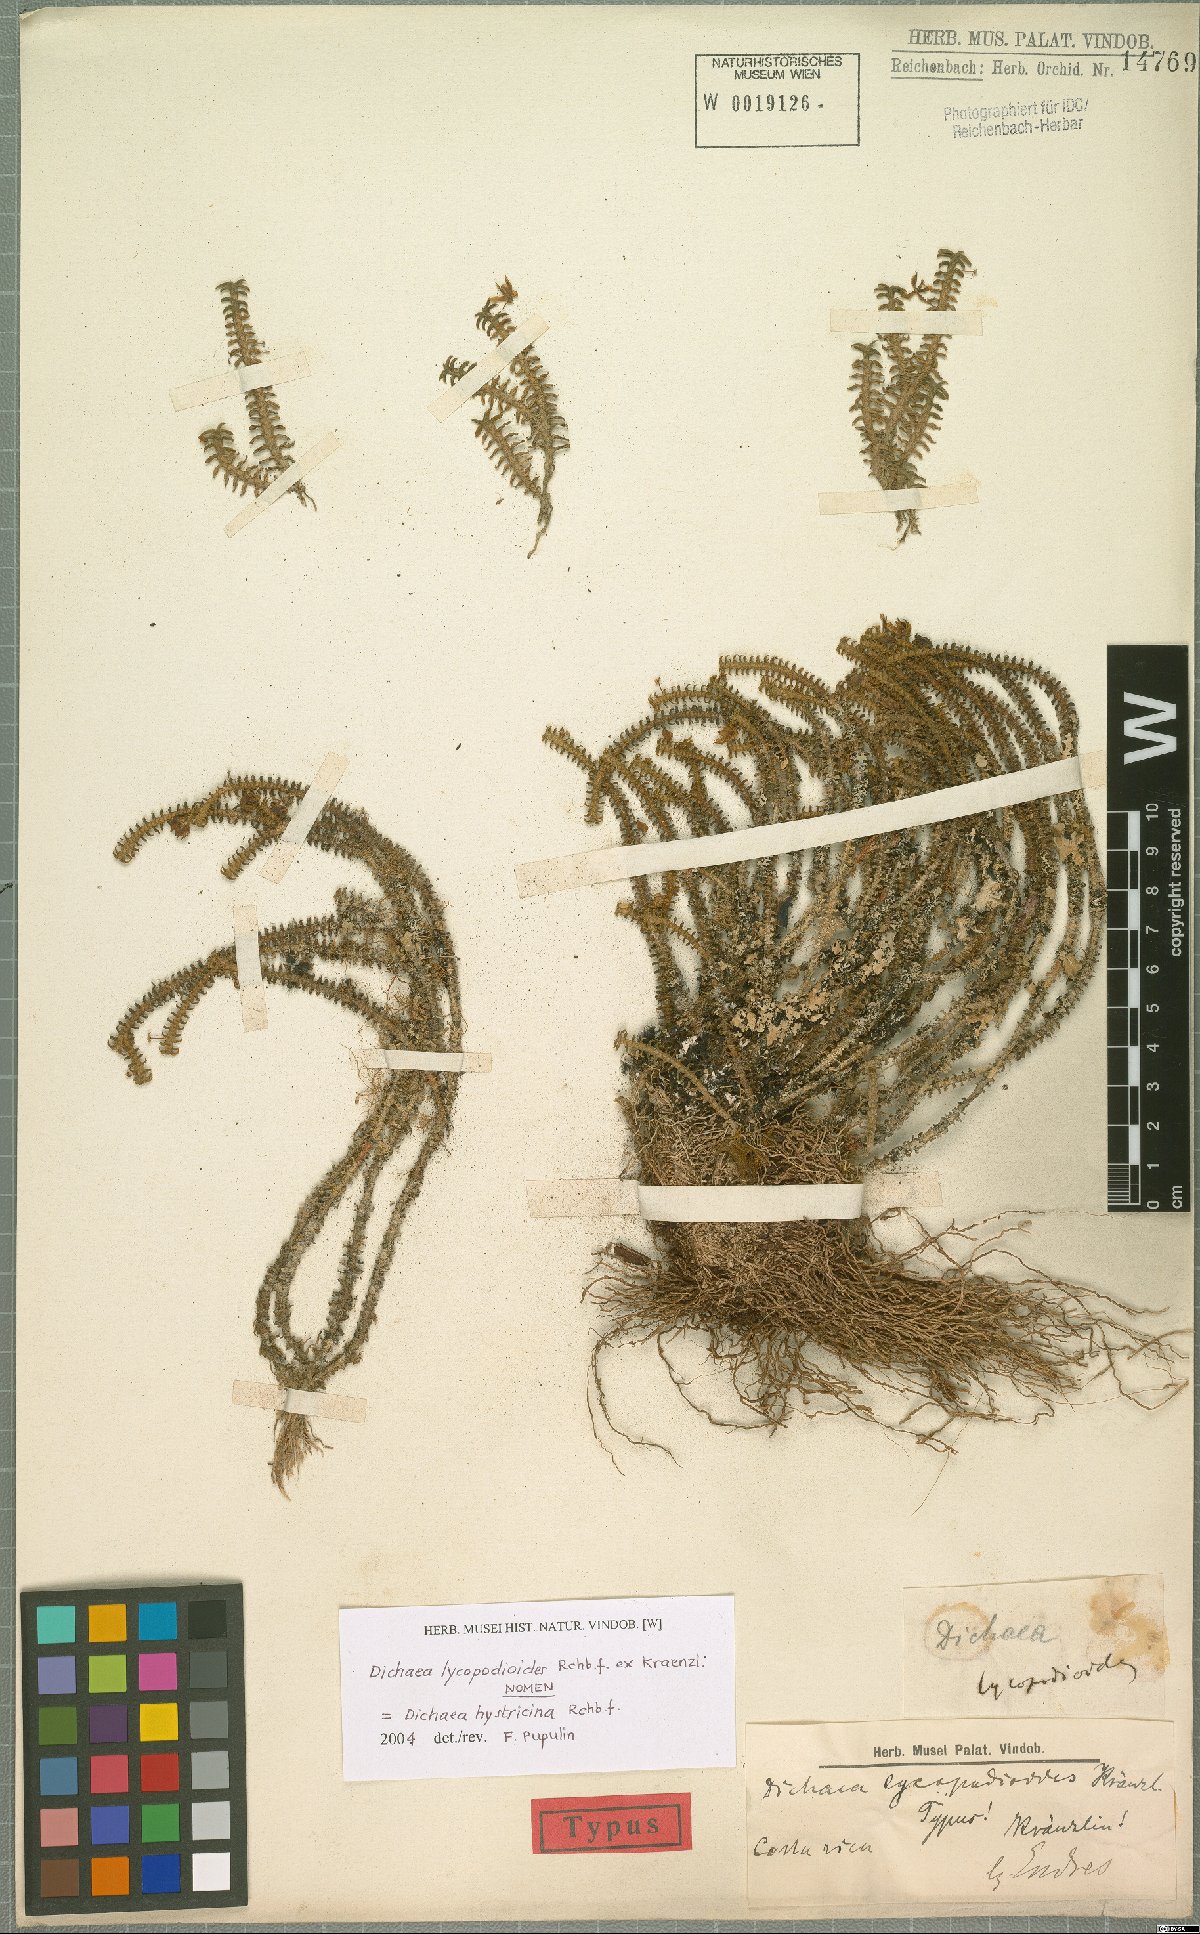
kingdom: Plantae
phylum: Tracheophyta
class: Liliopsida
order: Asparagales
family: Orchidaceae
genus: Dichaea
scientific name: Dichaea hystricina
